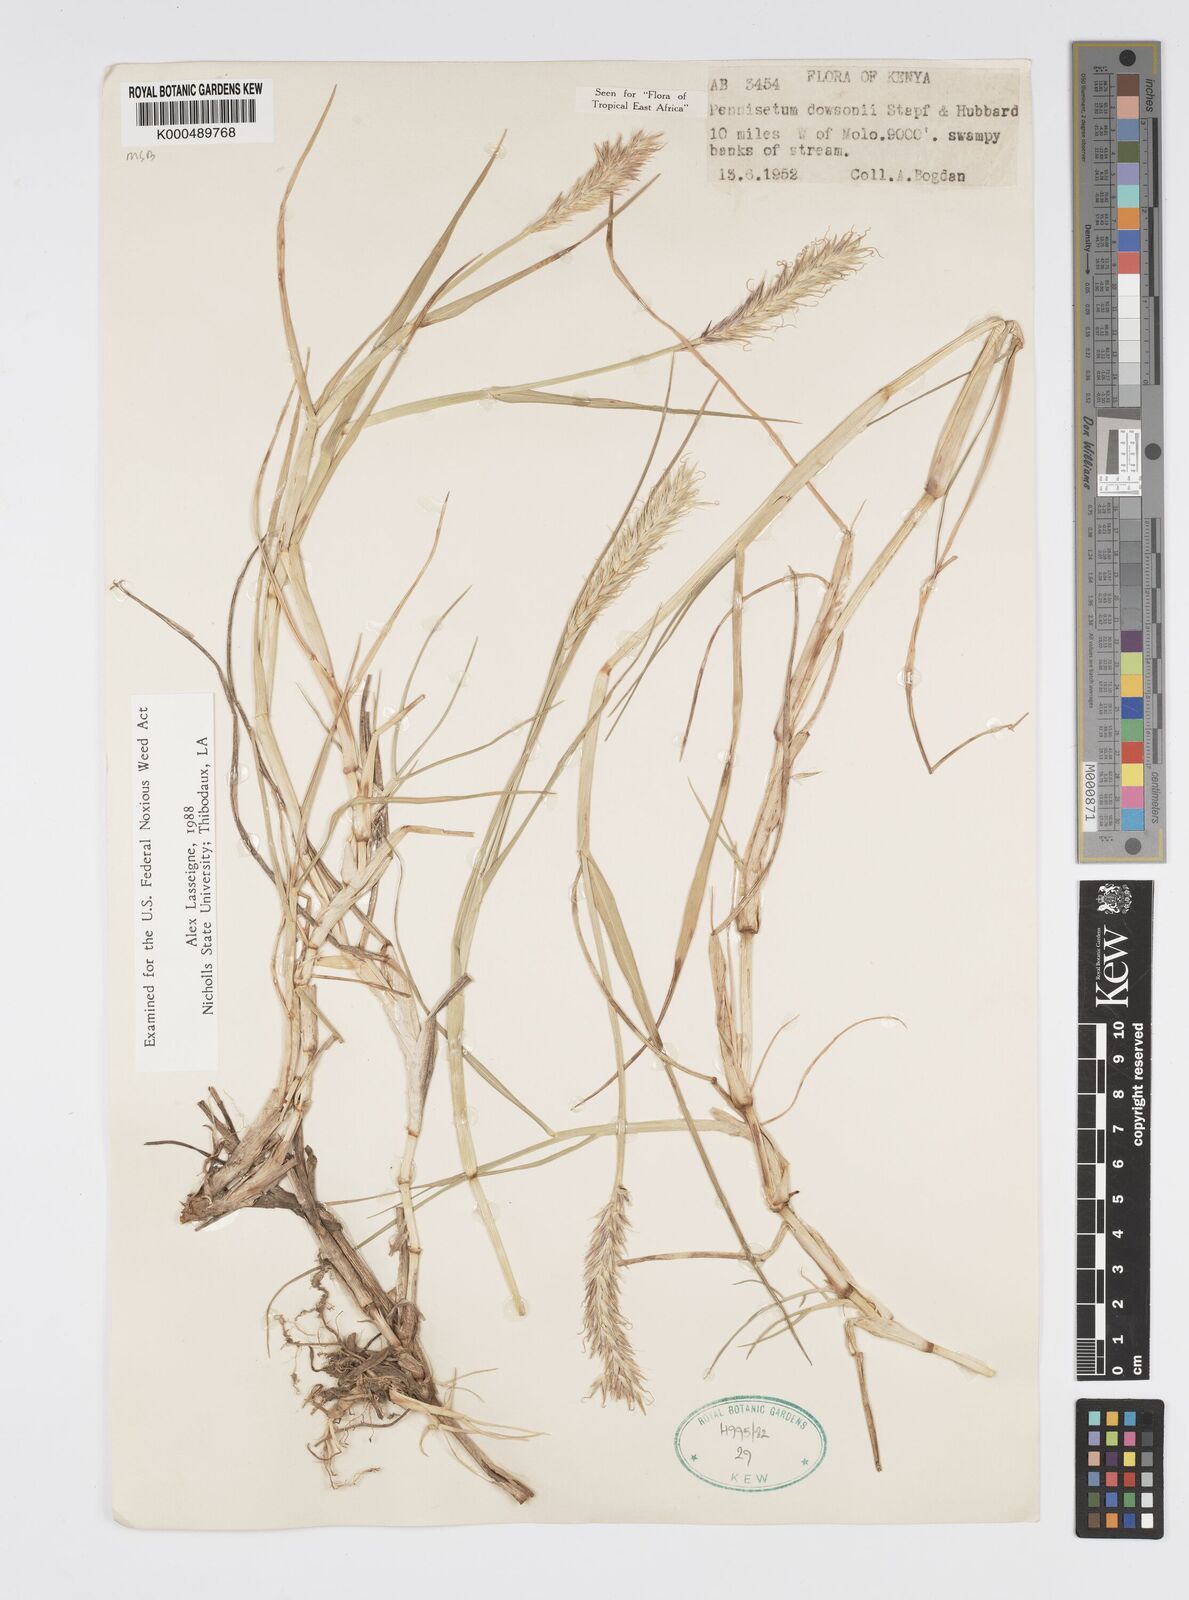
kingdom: Plantae
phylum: Tracheophyta
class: Liliopsida
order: Poales
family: Poaceae
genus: Cenchrus
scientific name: Cenchrus Pennisetum spec
